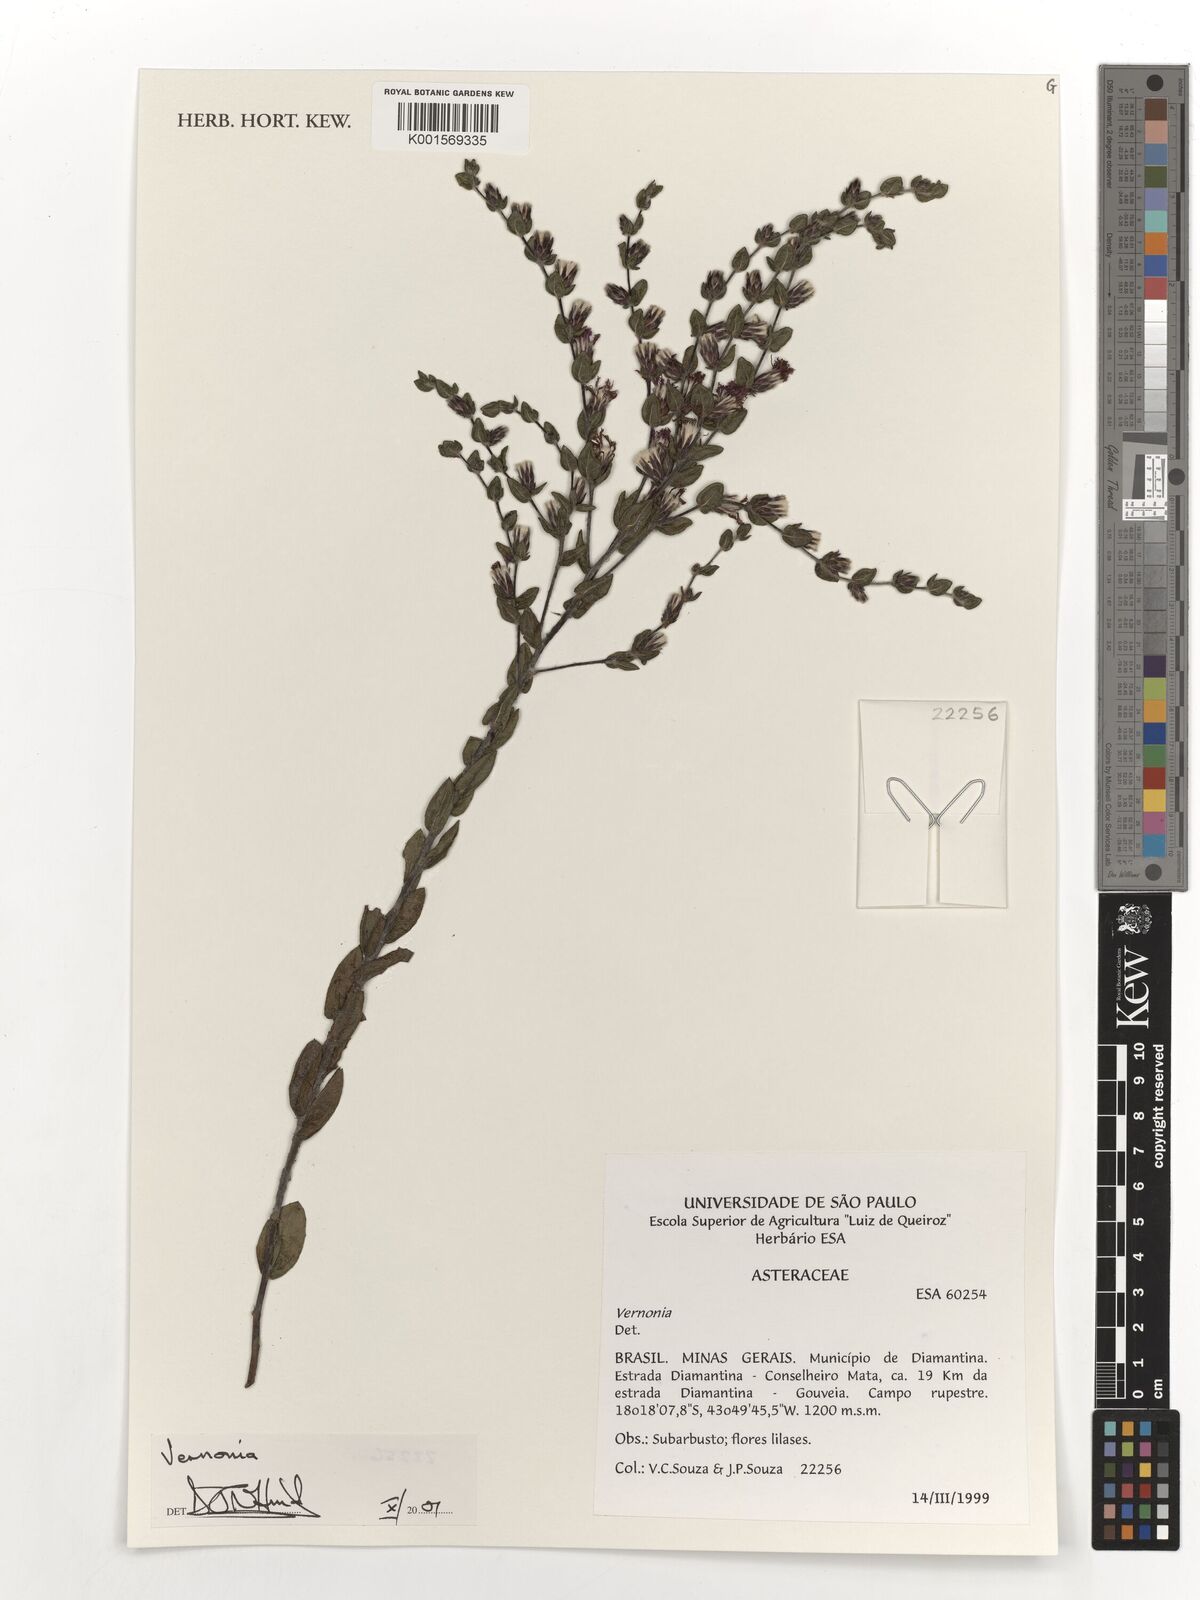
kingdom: Plantae
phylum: Tracheophyta
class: Magnoliopsida
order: Asterales
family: Asteraceae
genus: Vernonia
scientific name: Vernonia
